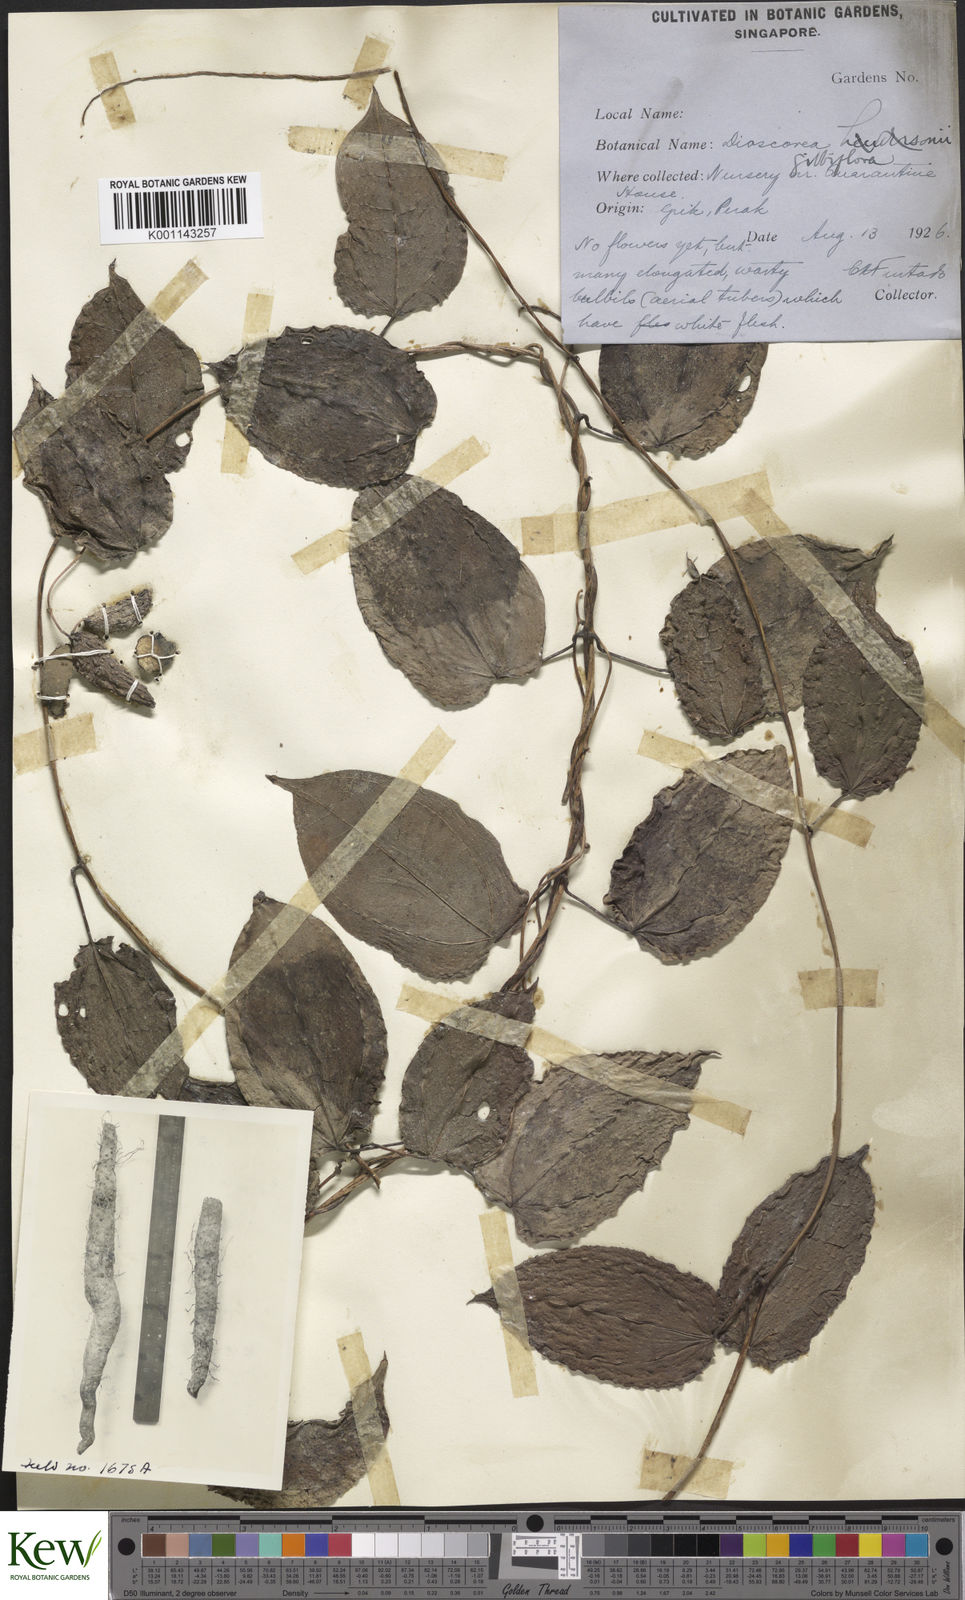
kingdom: Plantae
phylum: Tracheophyta
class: Liliopsida
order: Dioscoreales
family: Dioscoreaceae
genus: Dioscorea
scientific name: Dioscorea filiformis
